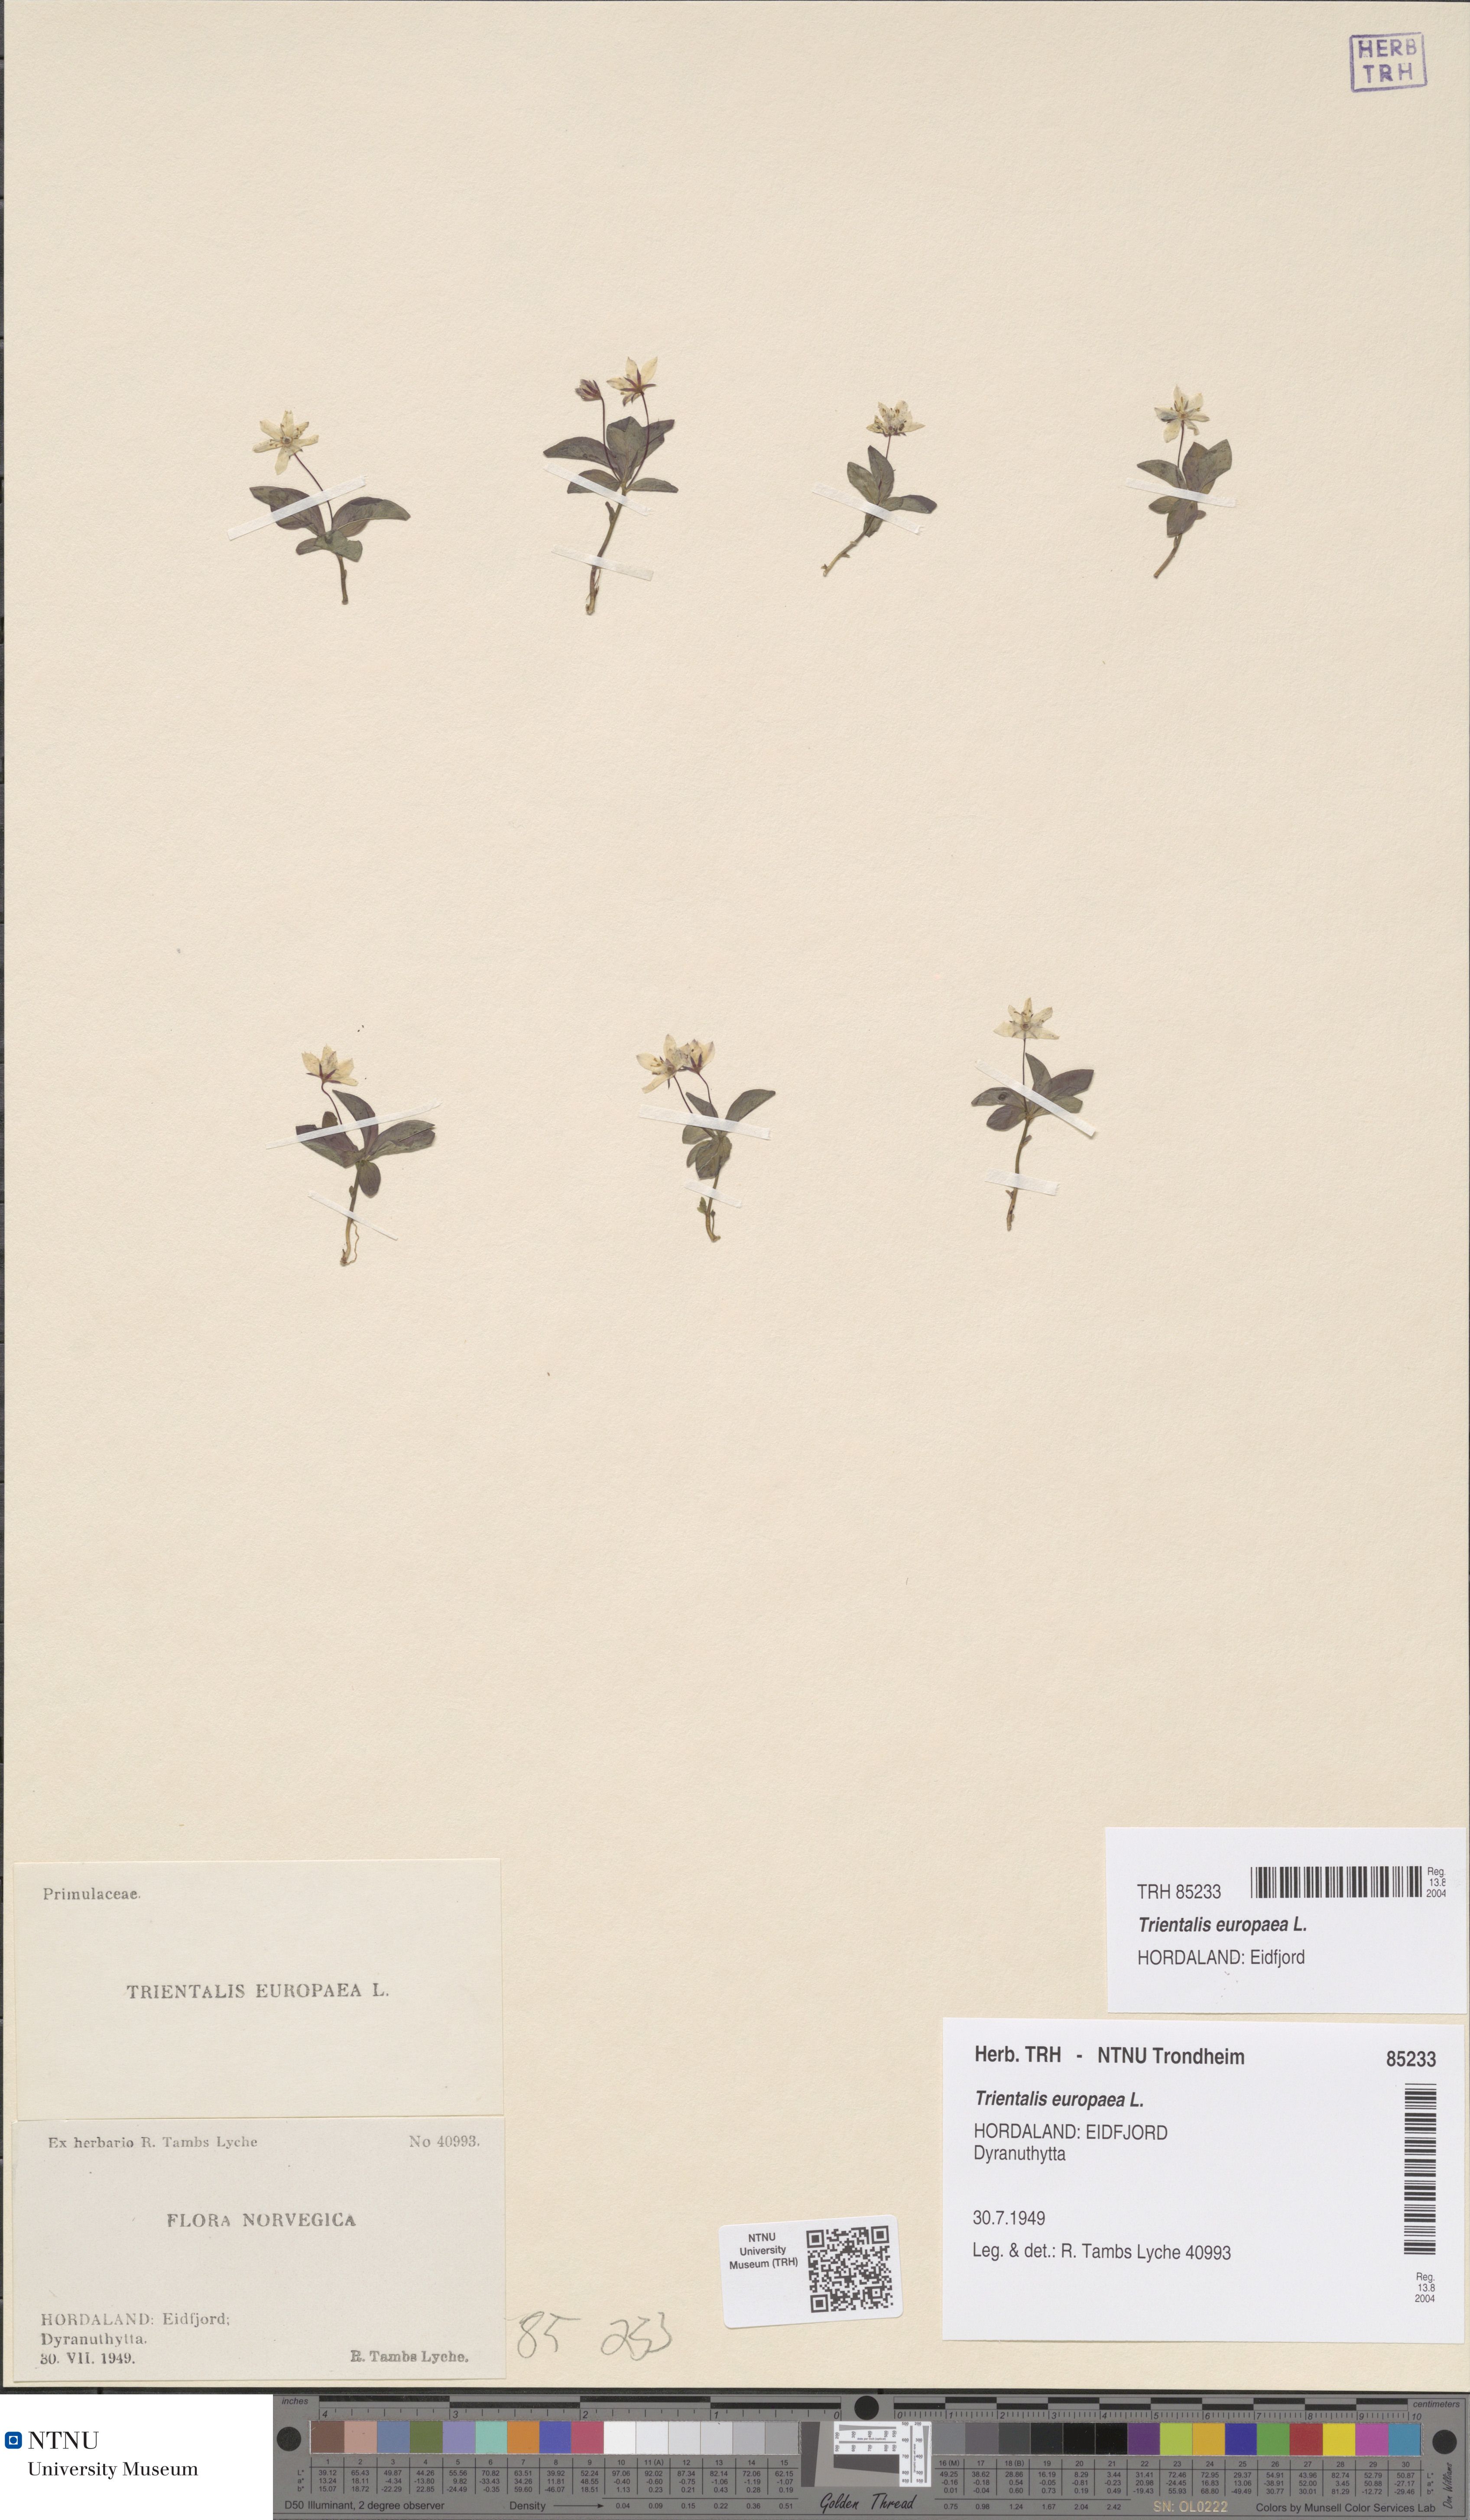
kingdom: Plantae
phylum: Tracheophyta
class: Magnoliopsida
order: Ericales
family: Primulaceae
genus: Lysimachia
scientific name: Lysimachia europaea
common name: Arctic starflower
